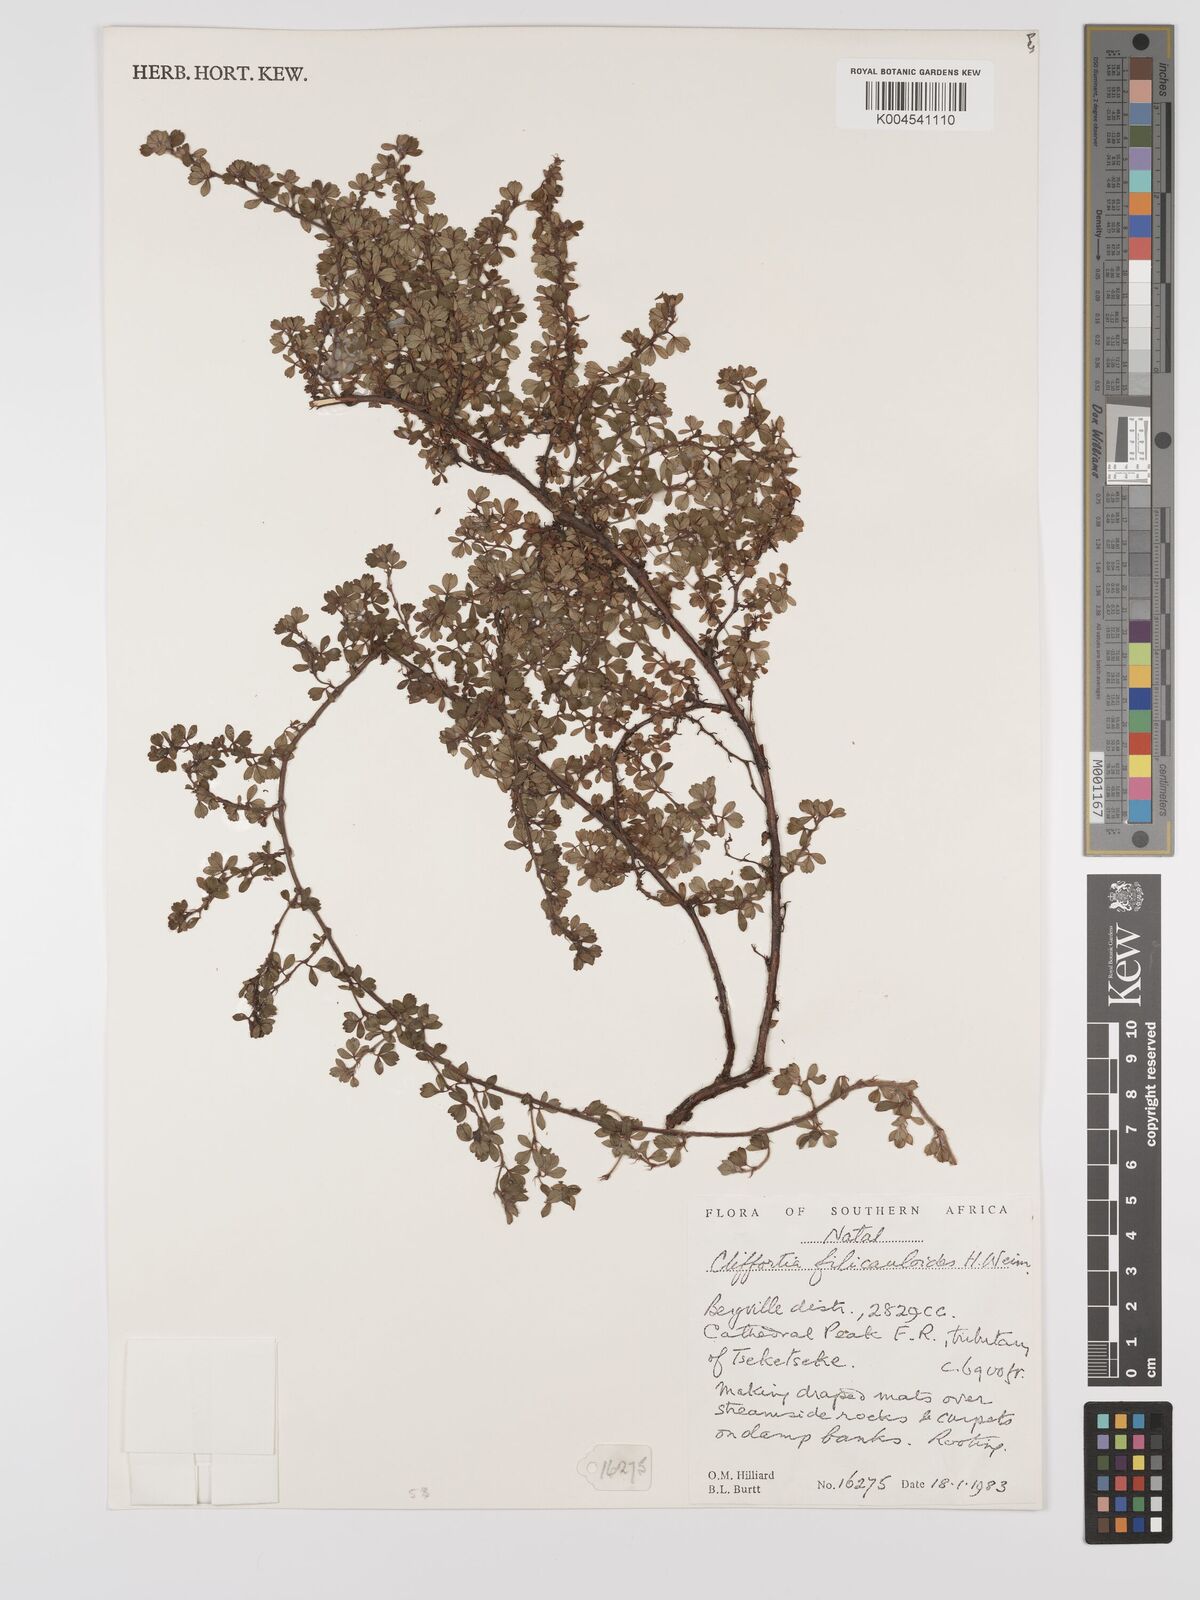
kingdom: Plantae
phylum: Tracheophyta
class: Magnoliopsida
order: Rosales
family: Rosaceae
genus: Cliffortia
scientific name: Cliffortia filicauloides
